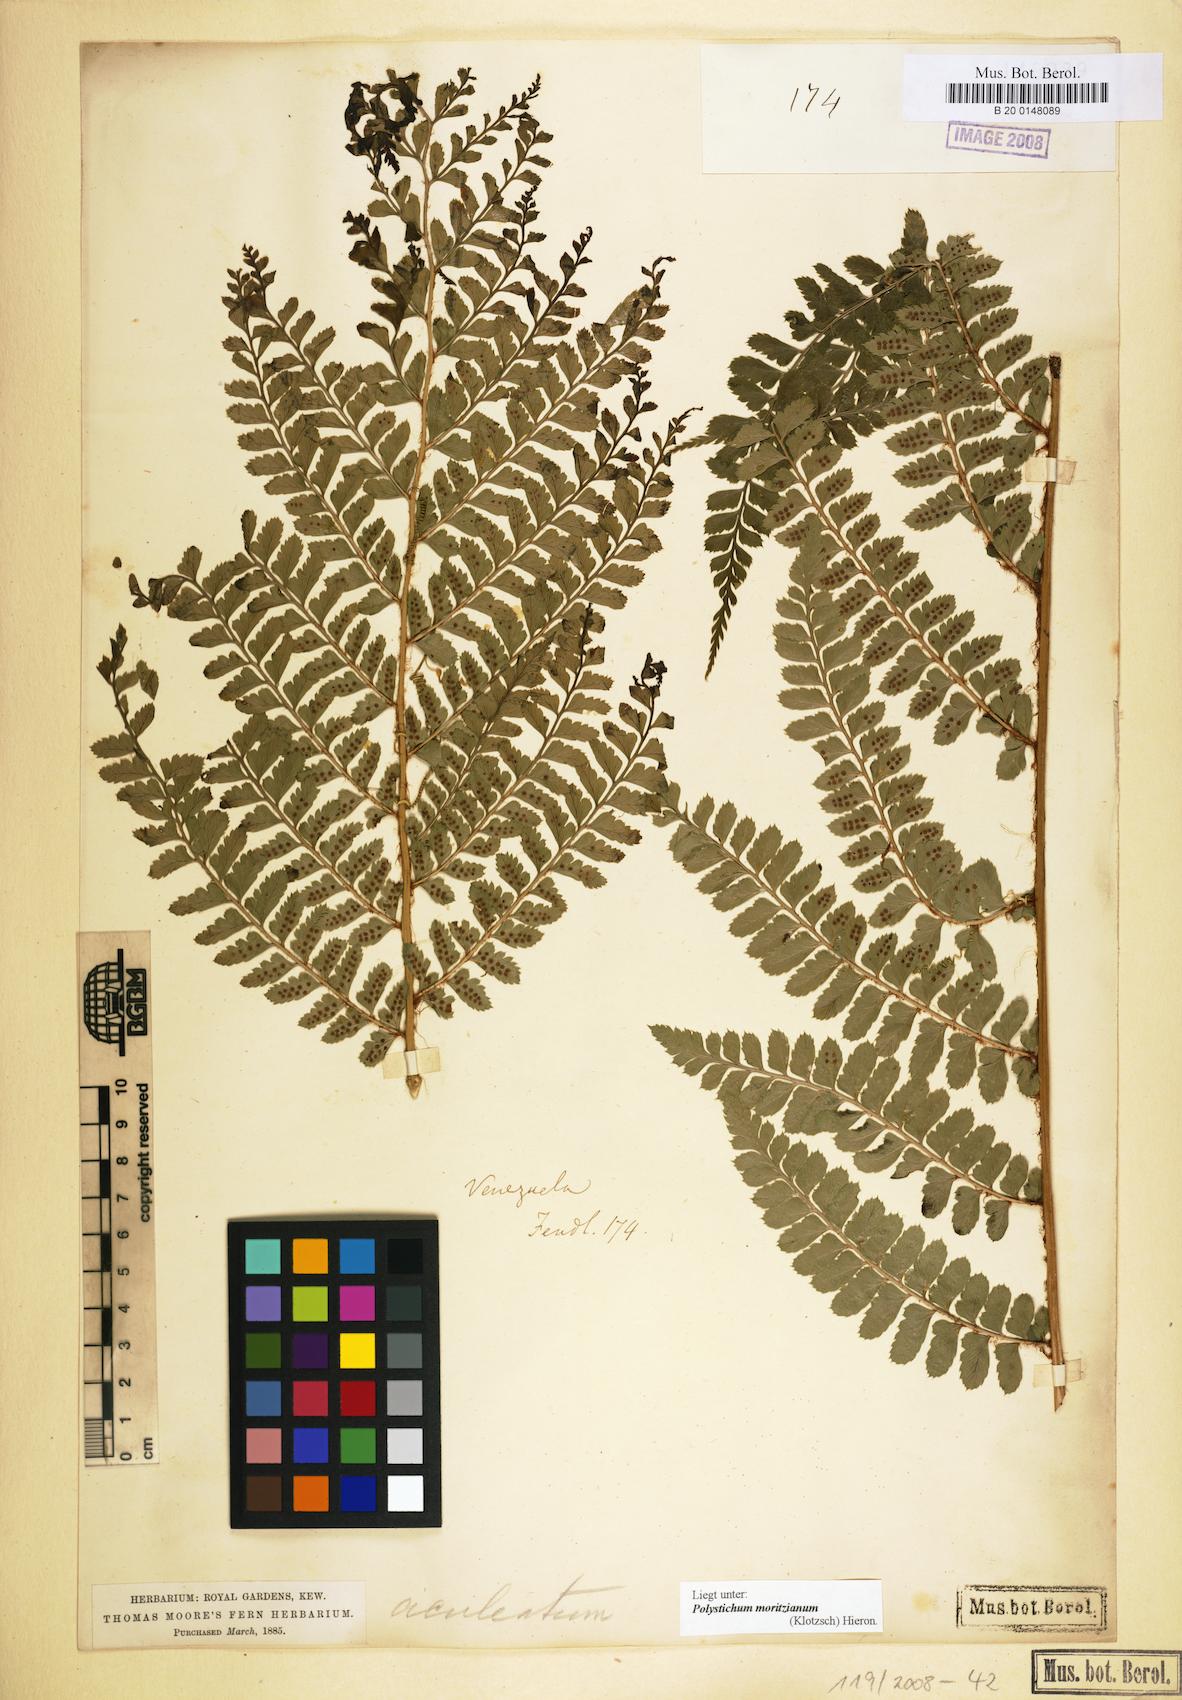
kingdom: Plantae
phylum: Tracheophyta
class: Polypodiopsida
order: Polypodiales
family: Dryopteridaceae
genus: Polystichum
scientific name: Polystichum muricatum
